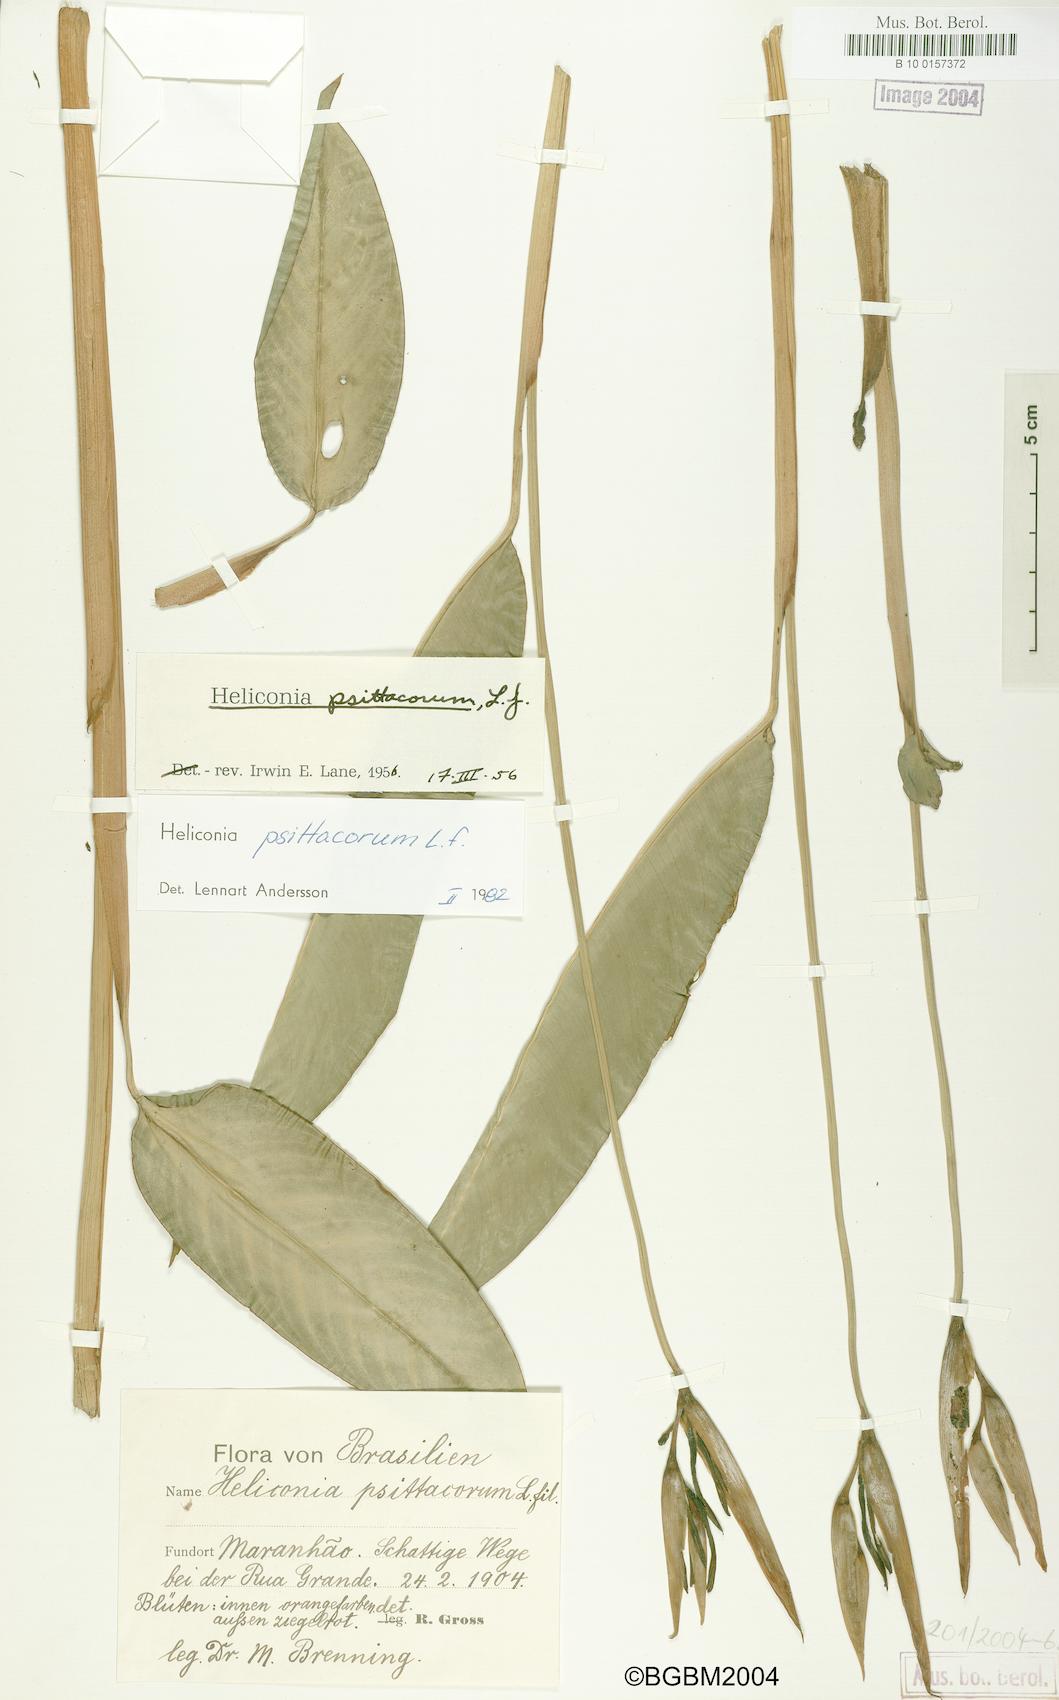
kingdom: Plantae
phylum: Tracheophyta
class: Liliopsida
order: Zingiberales
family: Heliconiaceae
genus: Heliconia
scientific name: Heliconia psittacorum
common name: Parrot's-flower
